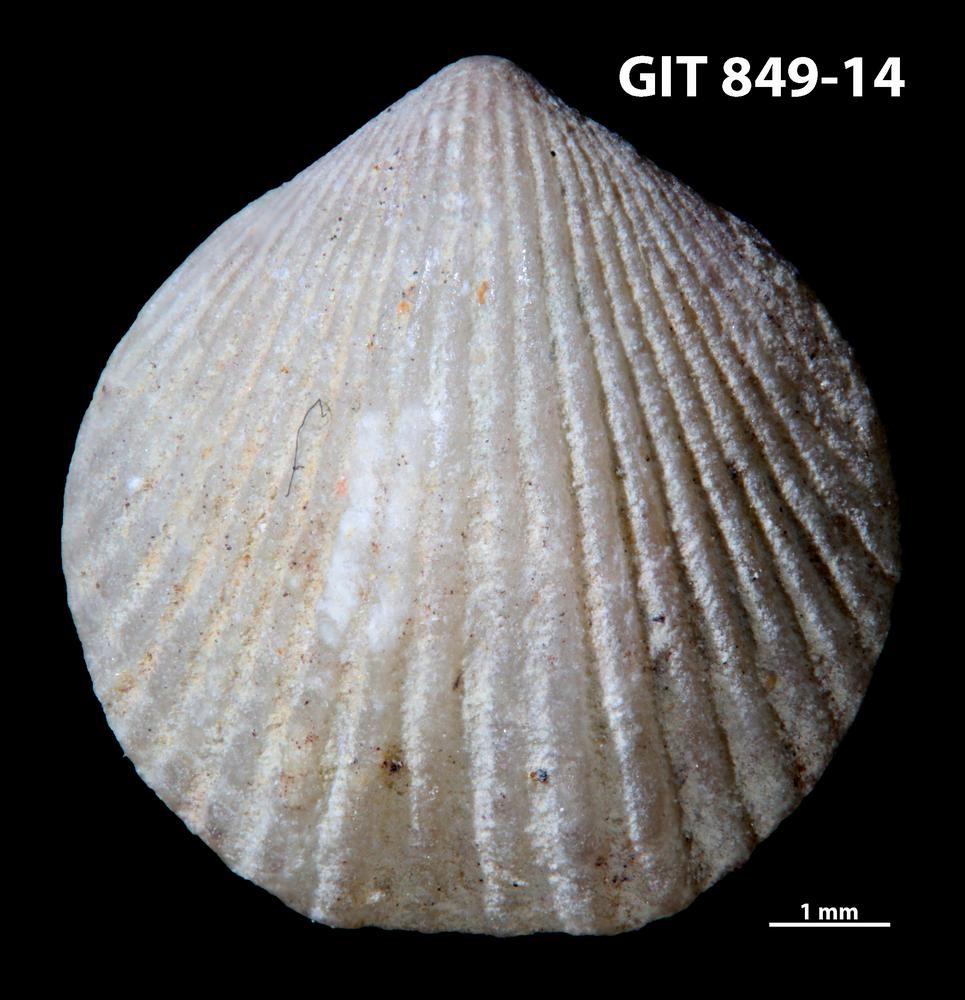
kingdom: Animalia
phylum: Brachiopoda
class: Rhynchonellata
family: Atrypinidae
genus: Clintonella
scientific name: Clintonella
